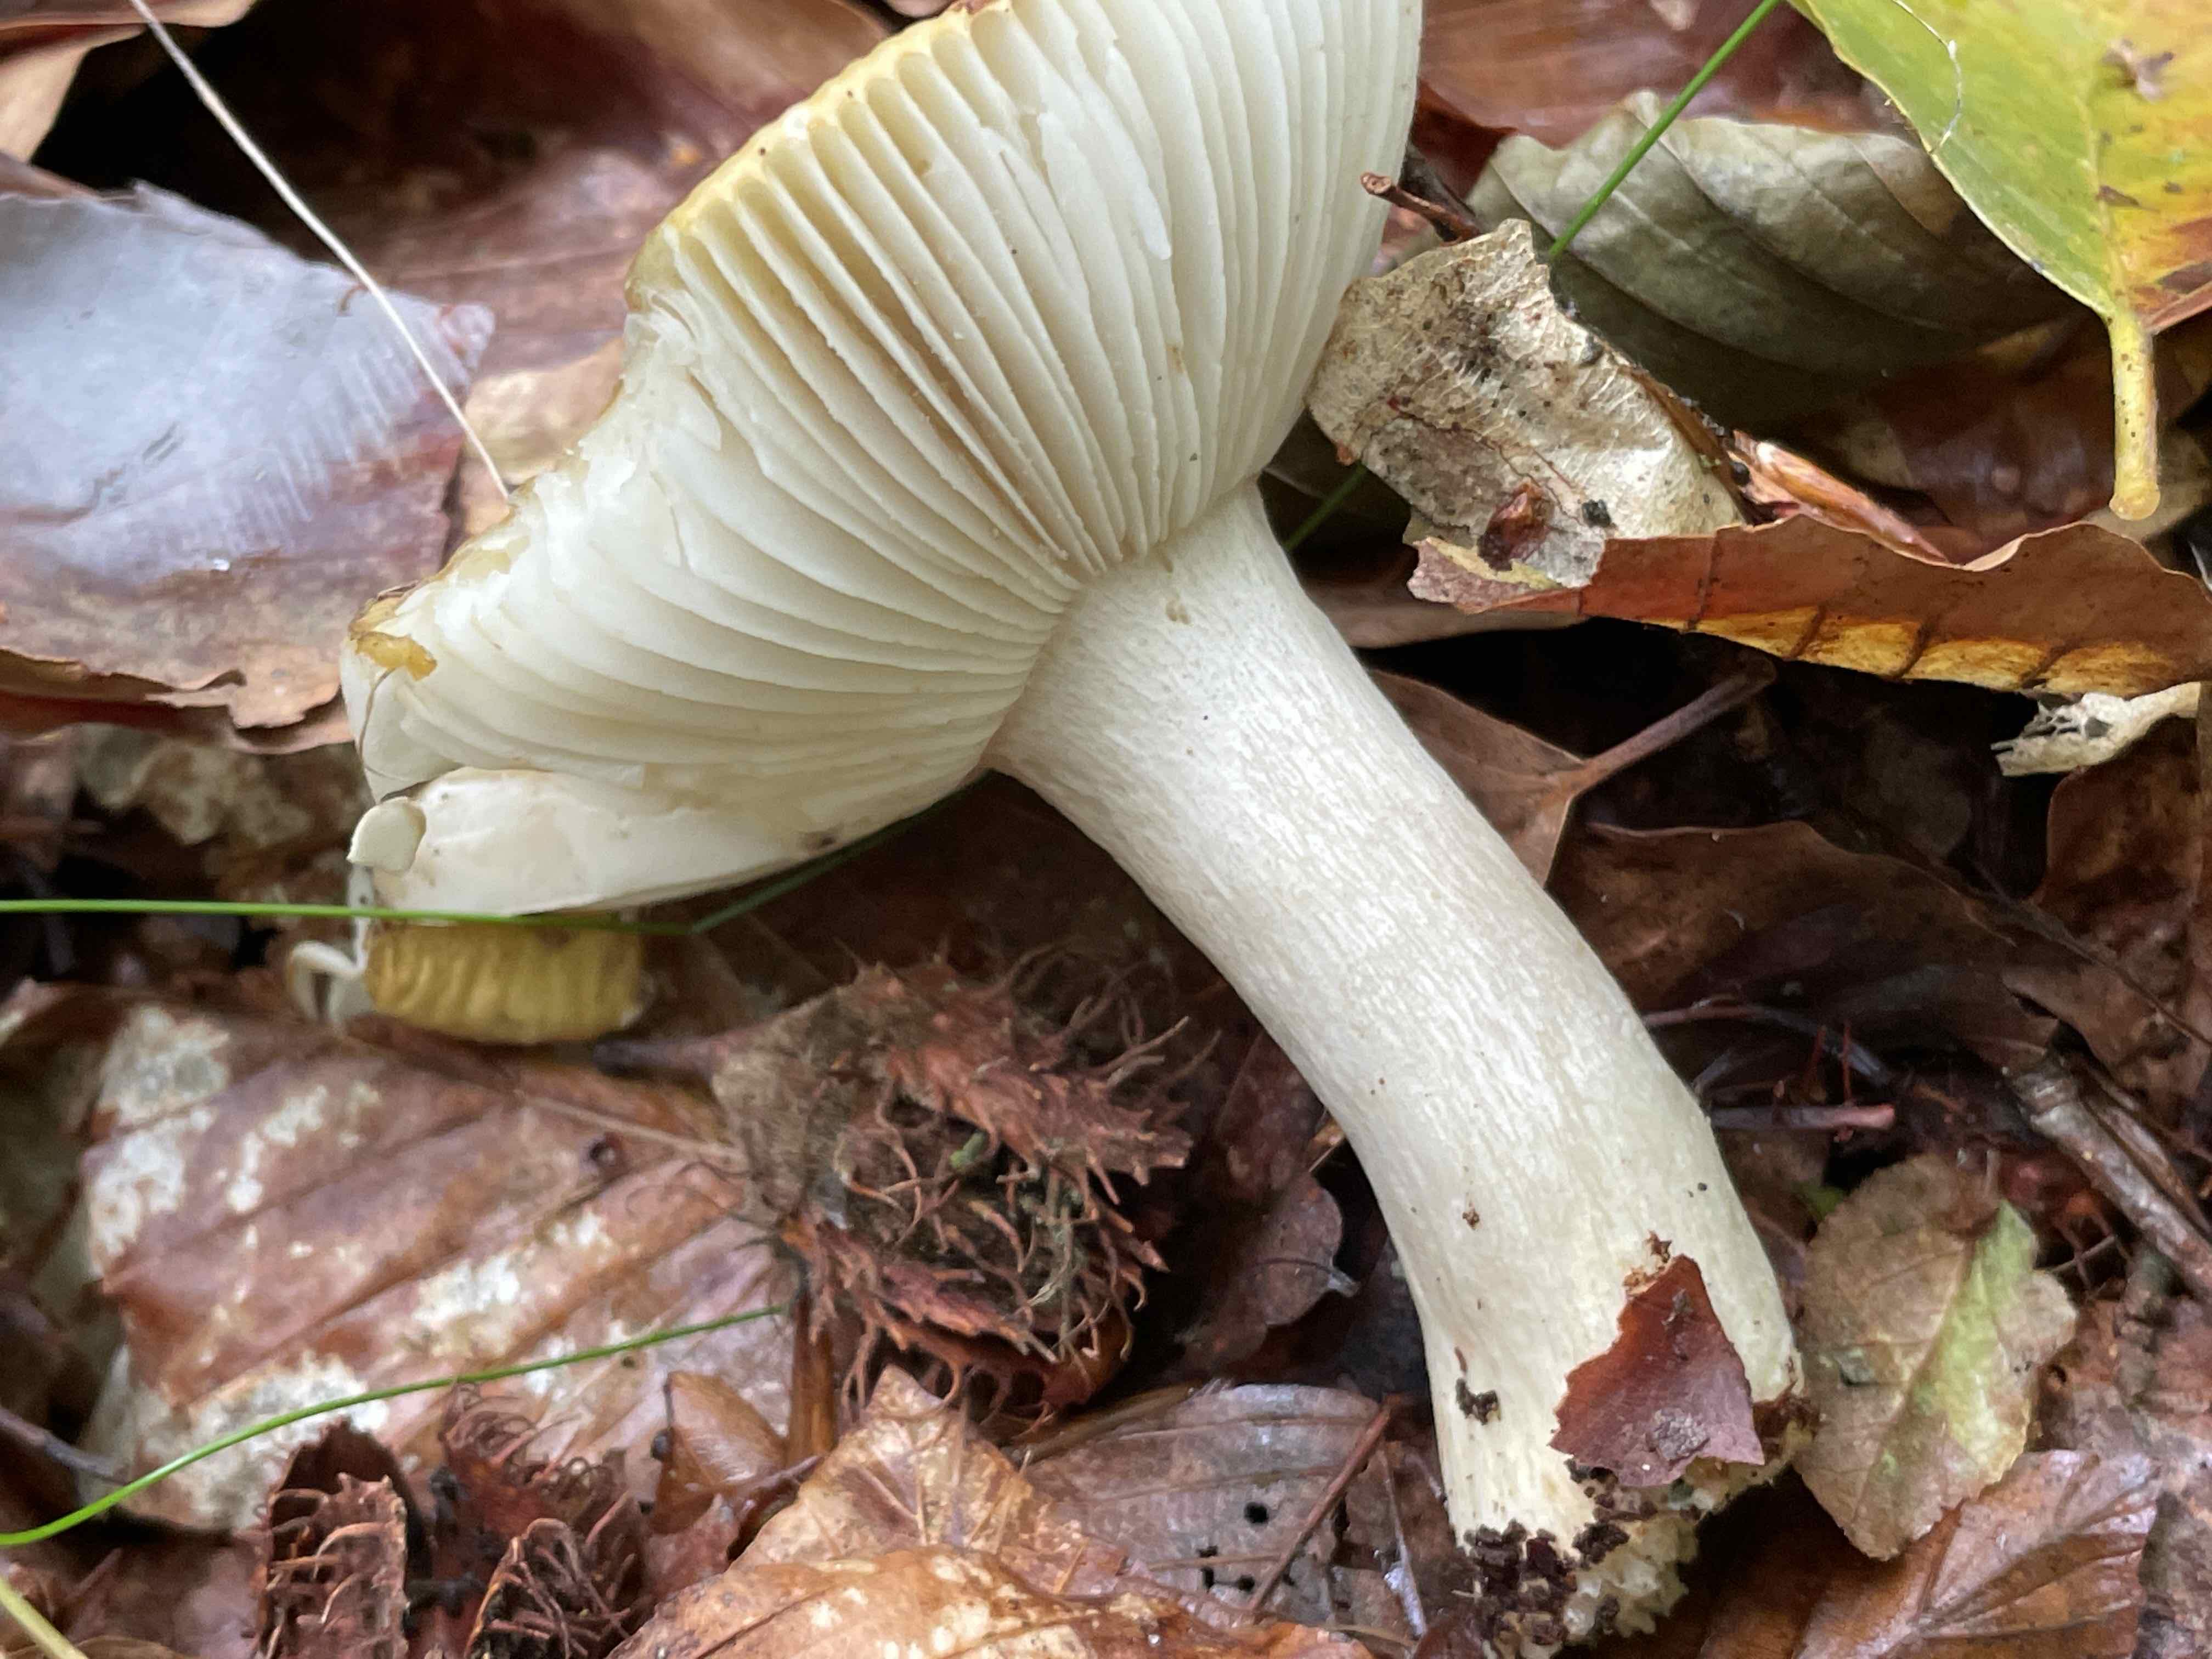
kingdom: Fungi
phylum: Basidiomycota
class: Agaricomycetes
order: Russulales
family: Russulaceae
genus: Russula
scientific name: Russula ochroleuca
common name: okkergul skørhat
